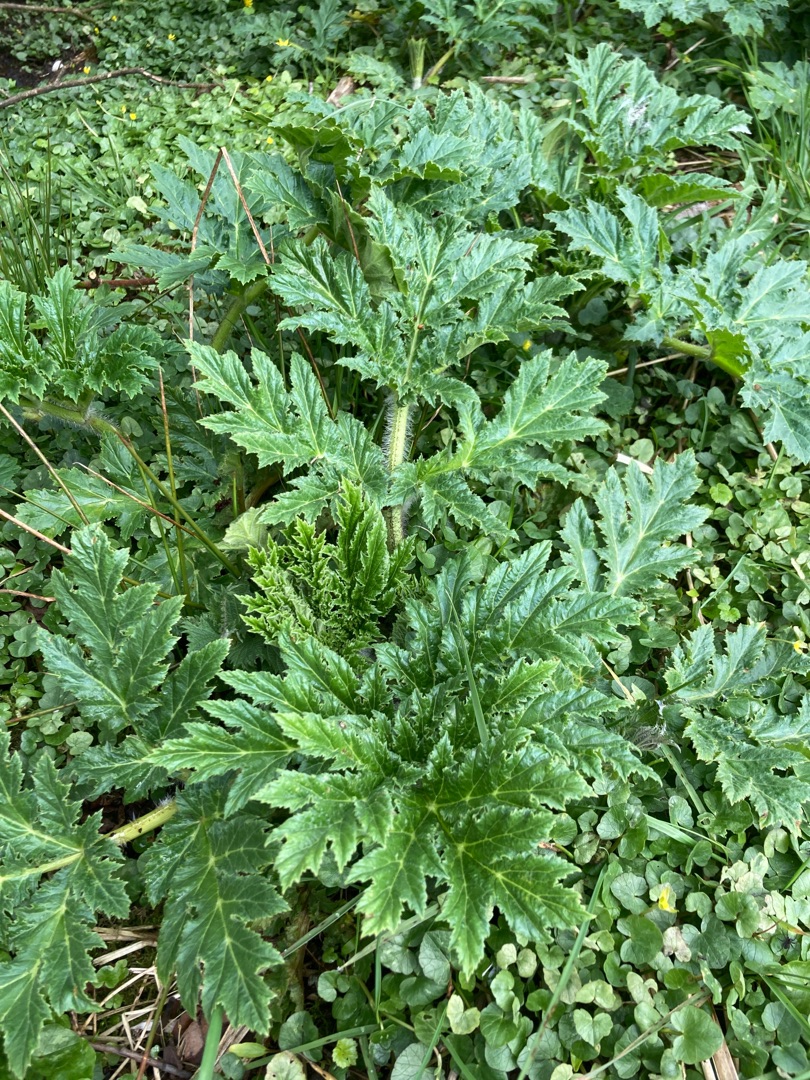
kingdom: Plantae
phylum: Tracheophyta
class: Magnoliopsida
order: Apiales
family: Apiaceae
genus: Heracleum
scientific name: Heracleum mantegazzianum
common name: Kæmpe-bjørneklo
